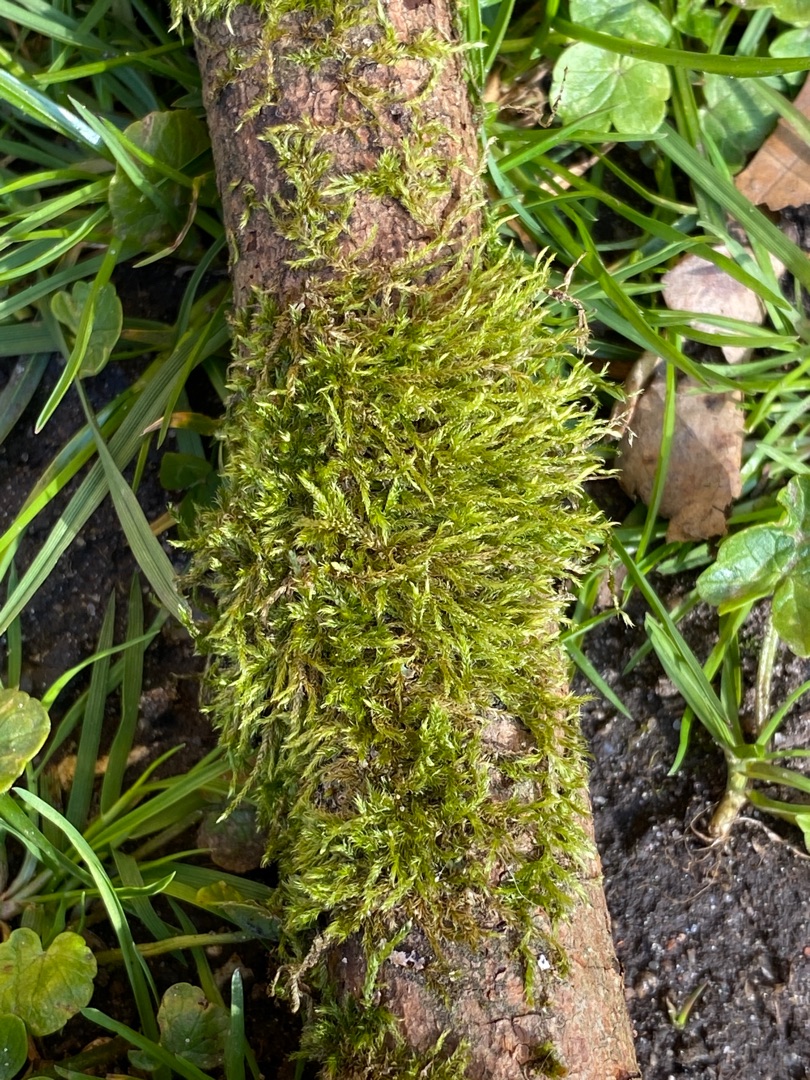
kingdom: Plantae
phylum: Bryophyta
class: Bryopsida
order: Hypnales
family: Hypnaceae
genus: Hypnum
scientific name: Hypnum cupressiforme
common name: Almindelig cypresmos
